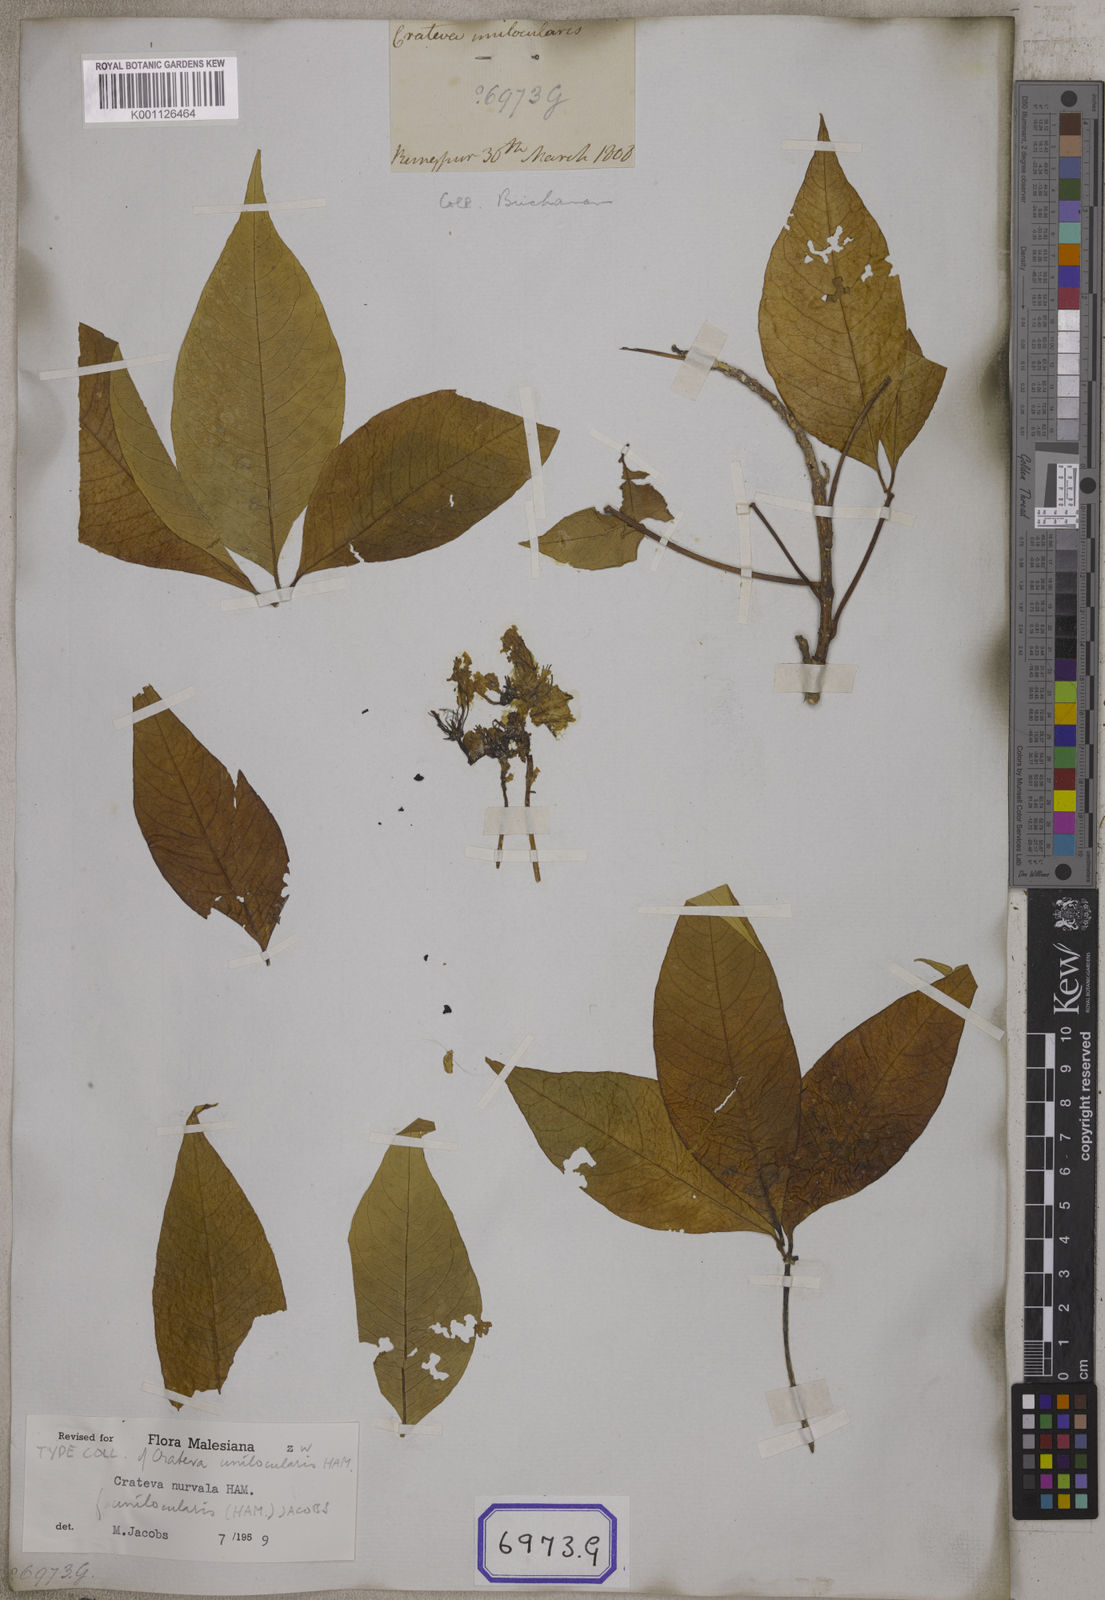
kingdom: Plantae
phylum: Tracheophyta
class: Magnoliopsida
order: Brassicales
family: Capparaceae
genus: Crateva
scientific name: Crateva magna
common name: Three-leaf-caper
